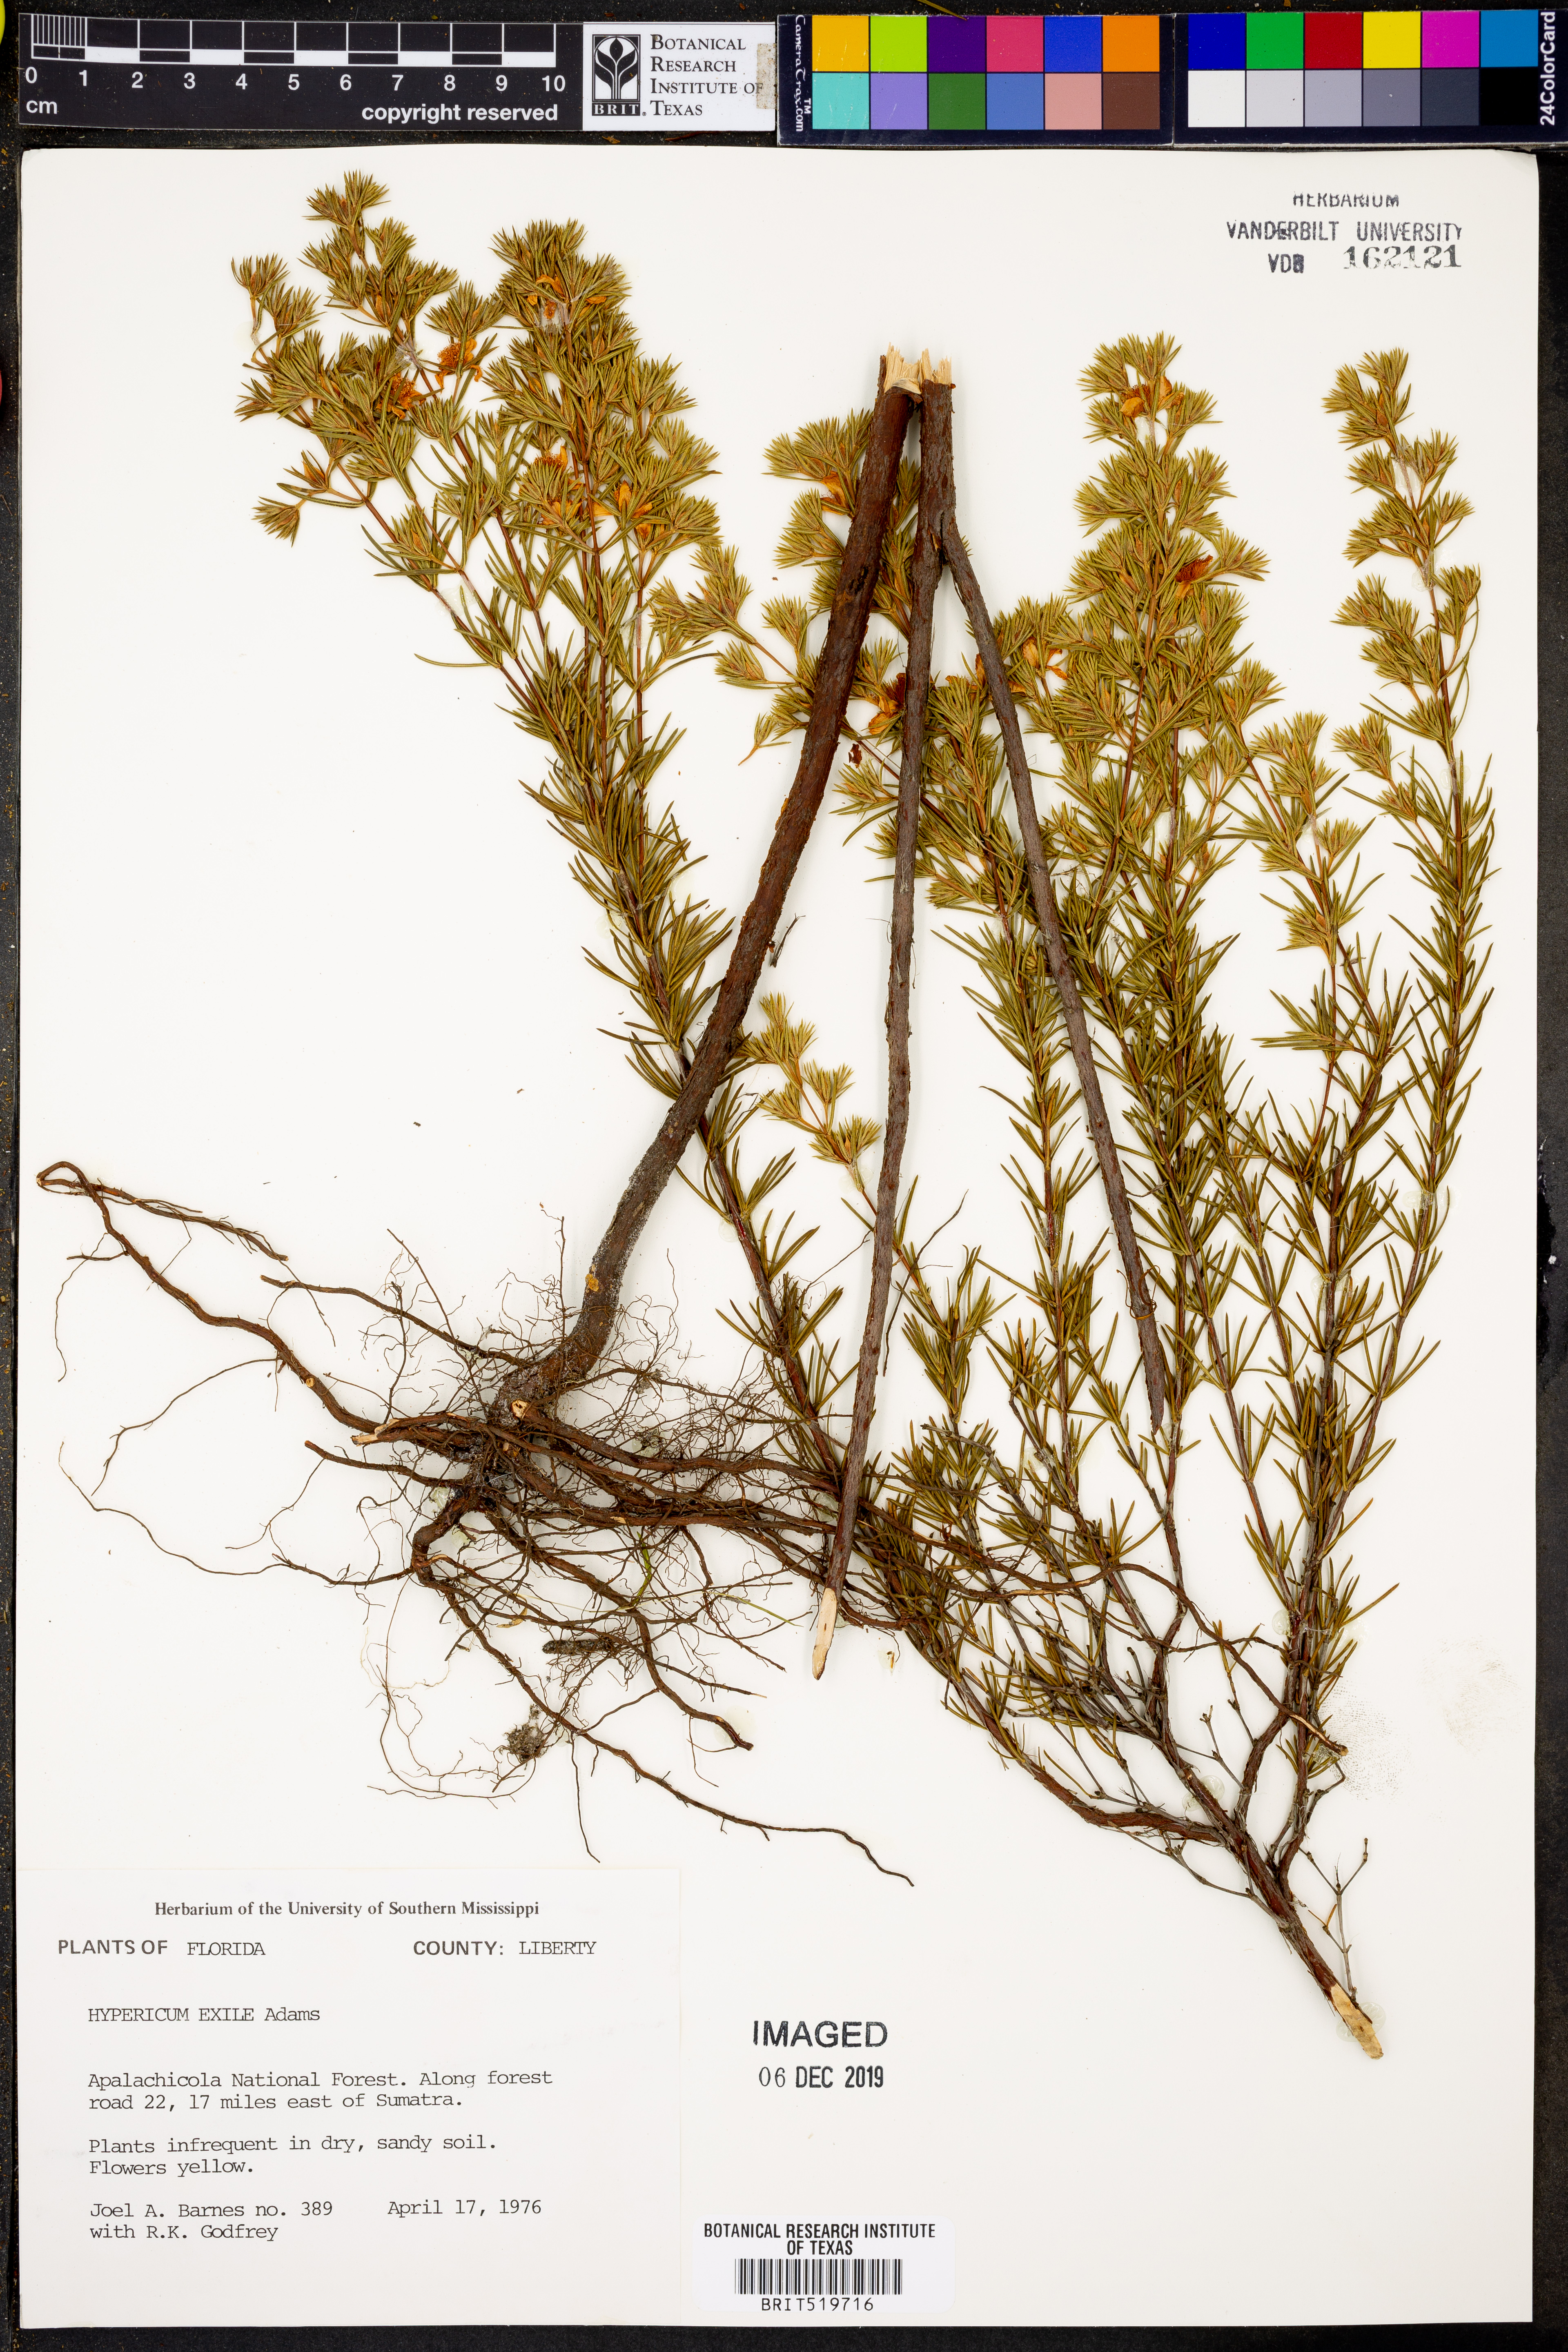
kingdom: Plantae
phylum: Tracheophyta
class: Magnoliopsida
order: Malpighiales
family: Hypericaceae
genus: Hypericum
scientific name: Hypericum nitidum
